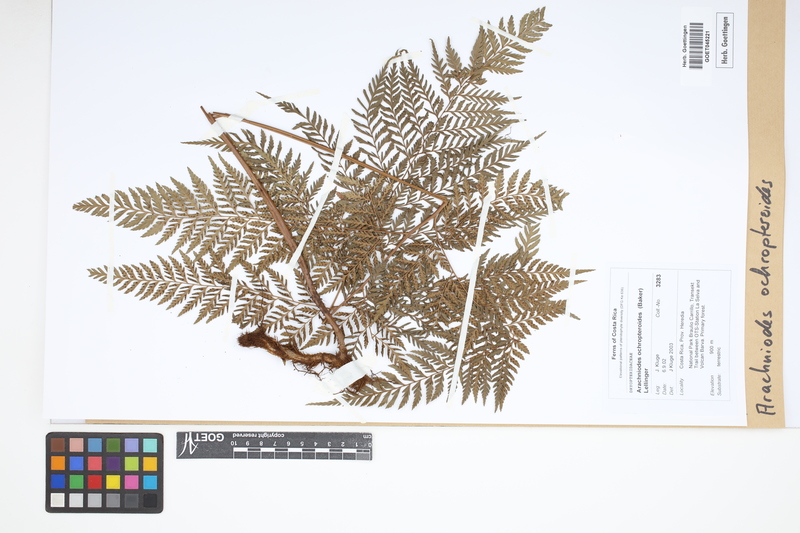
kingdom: Plantae
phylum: Tracheophyta
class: Polypodiopsida
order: Polypodiales
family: Dryopteridaceae
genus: Olfersia
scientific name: Olfersia ochropteroides
